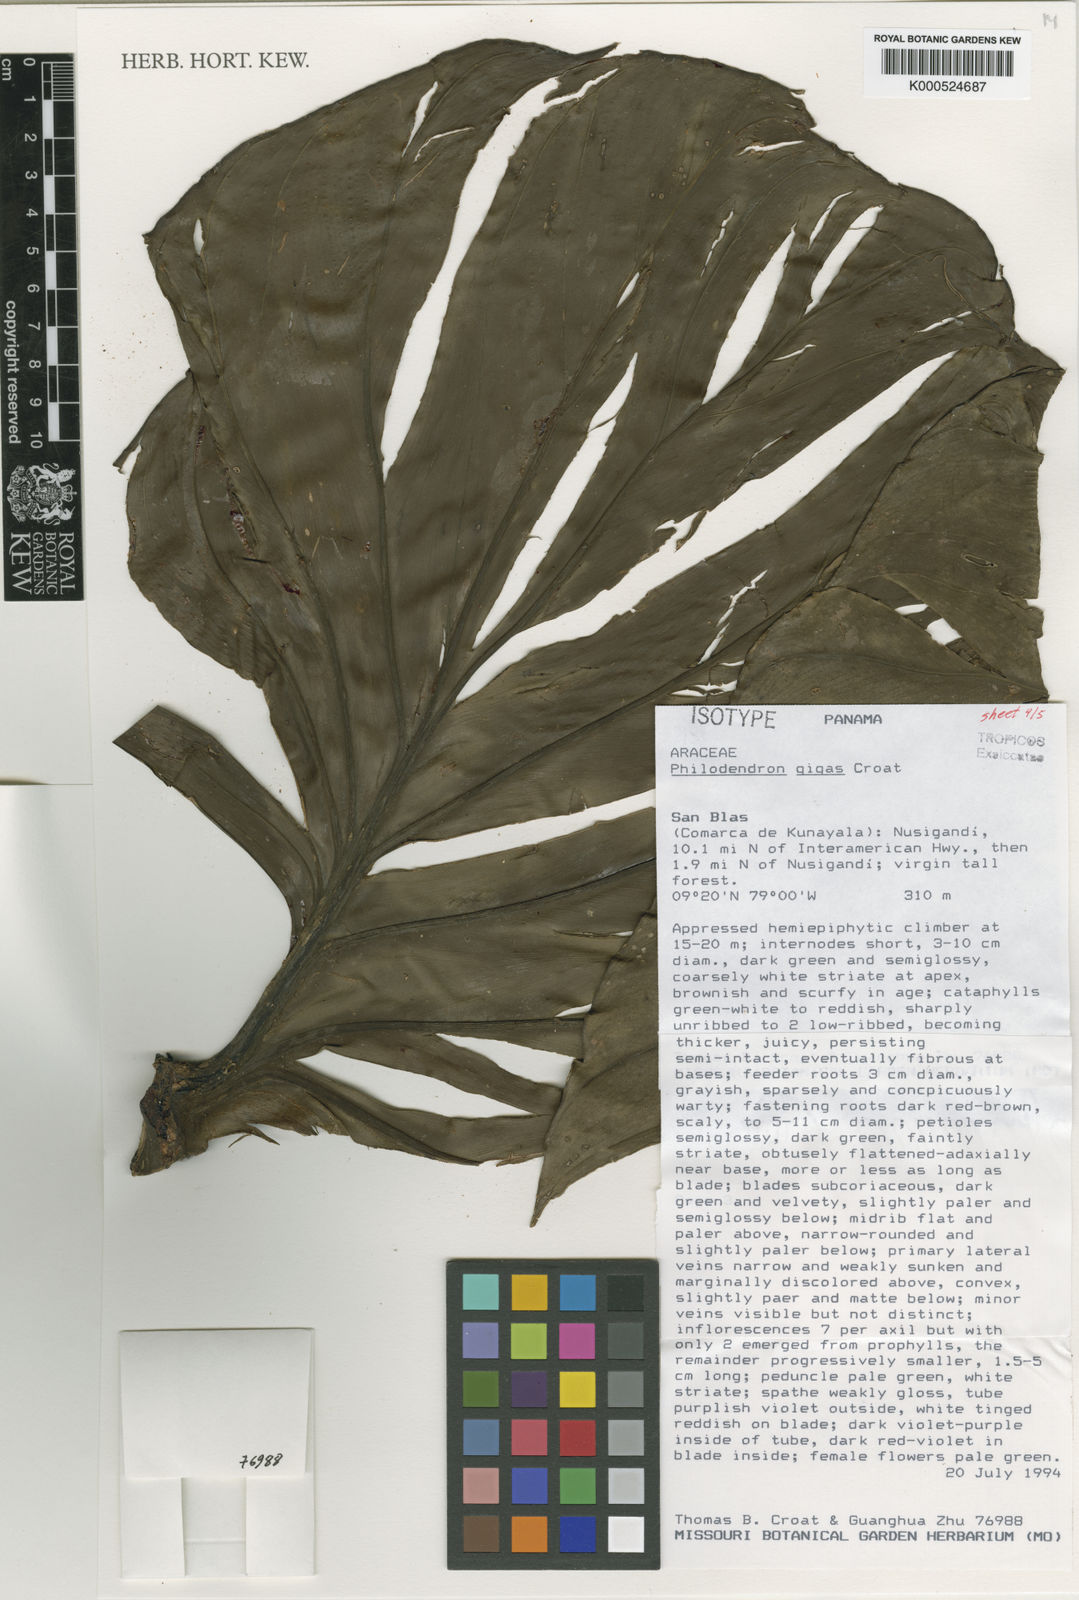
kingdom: Plantae
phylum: Tracheophyta
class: Liliopsida
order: Alismatales
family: Araceae
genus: Philodendron
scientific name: Philodendron gigas
